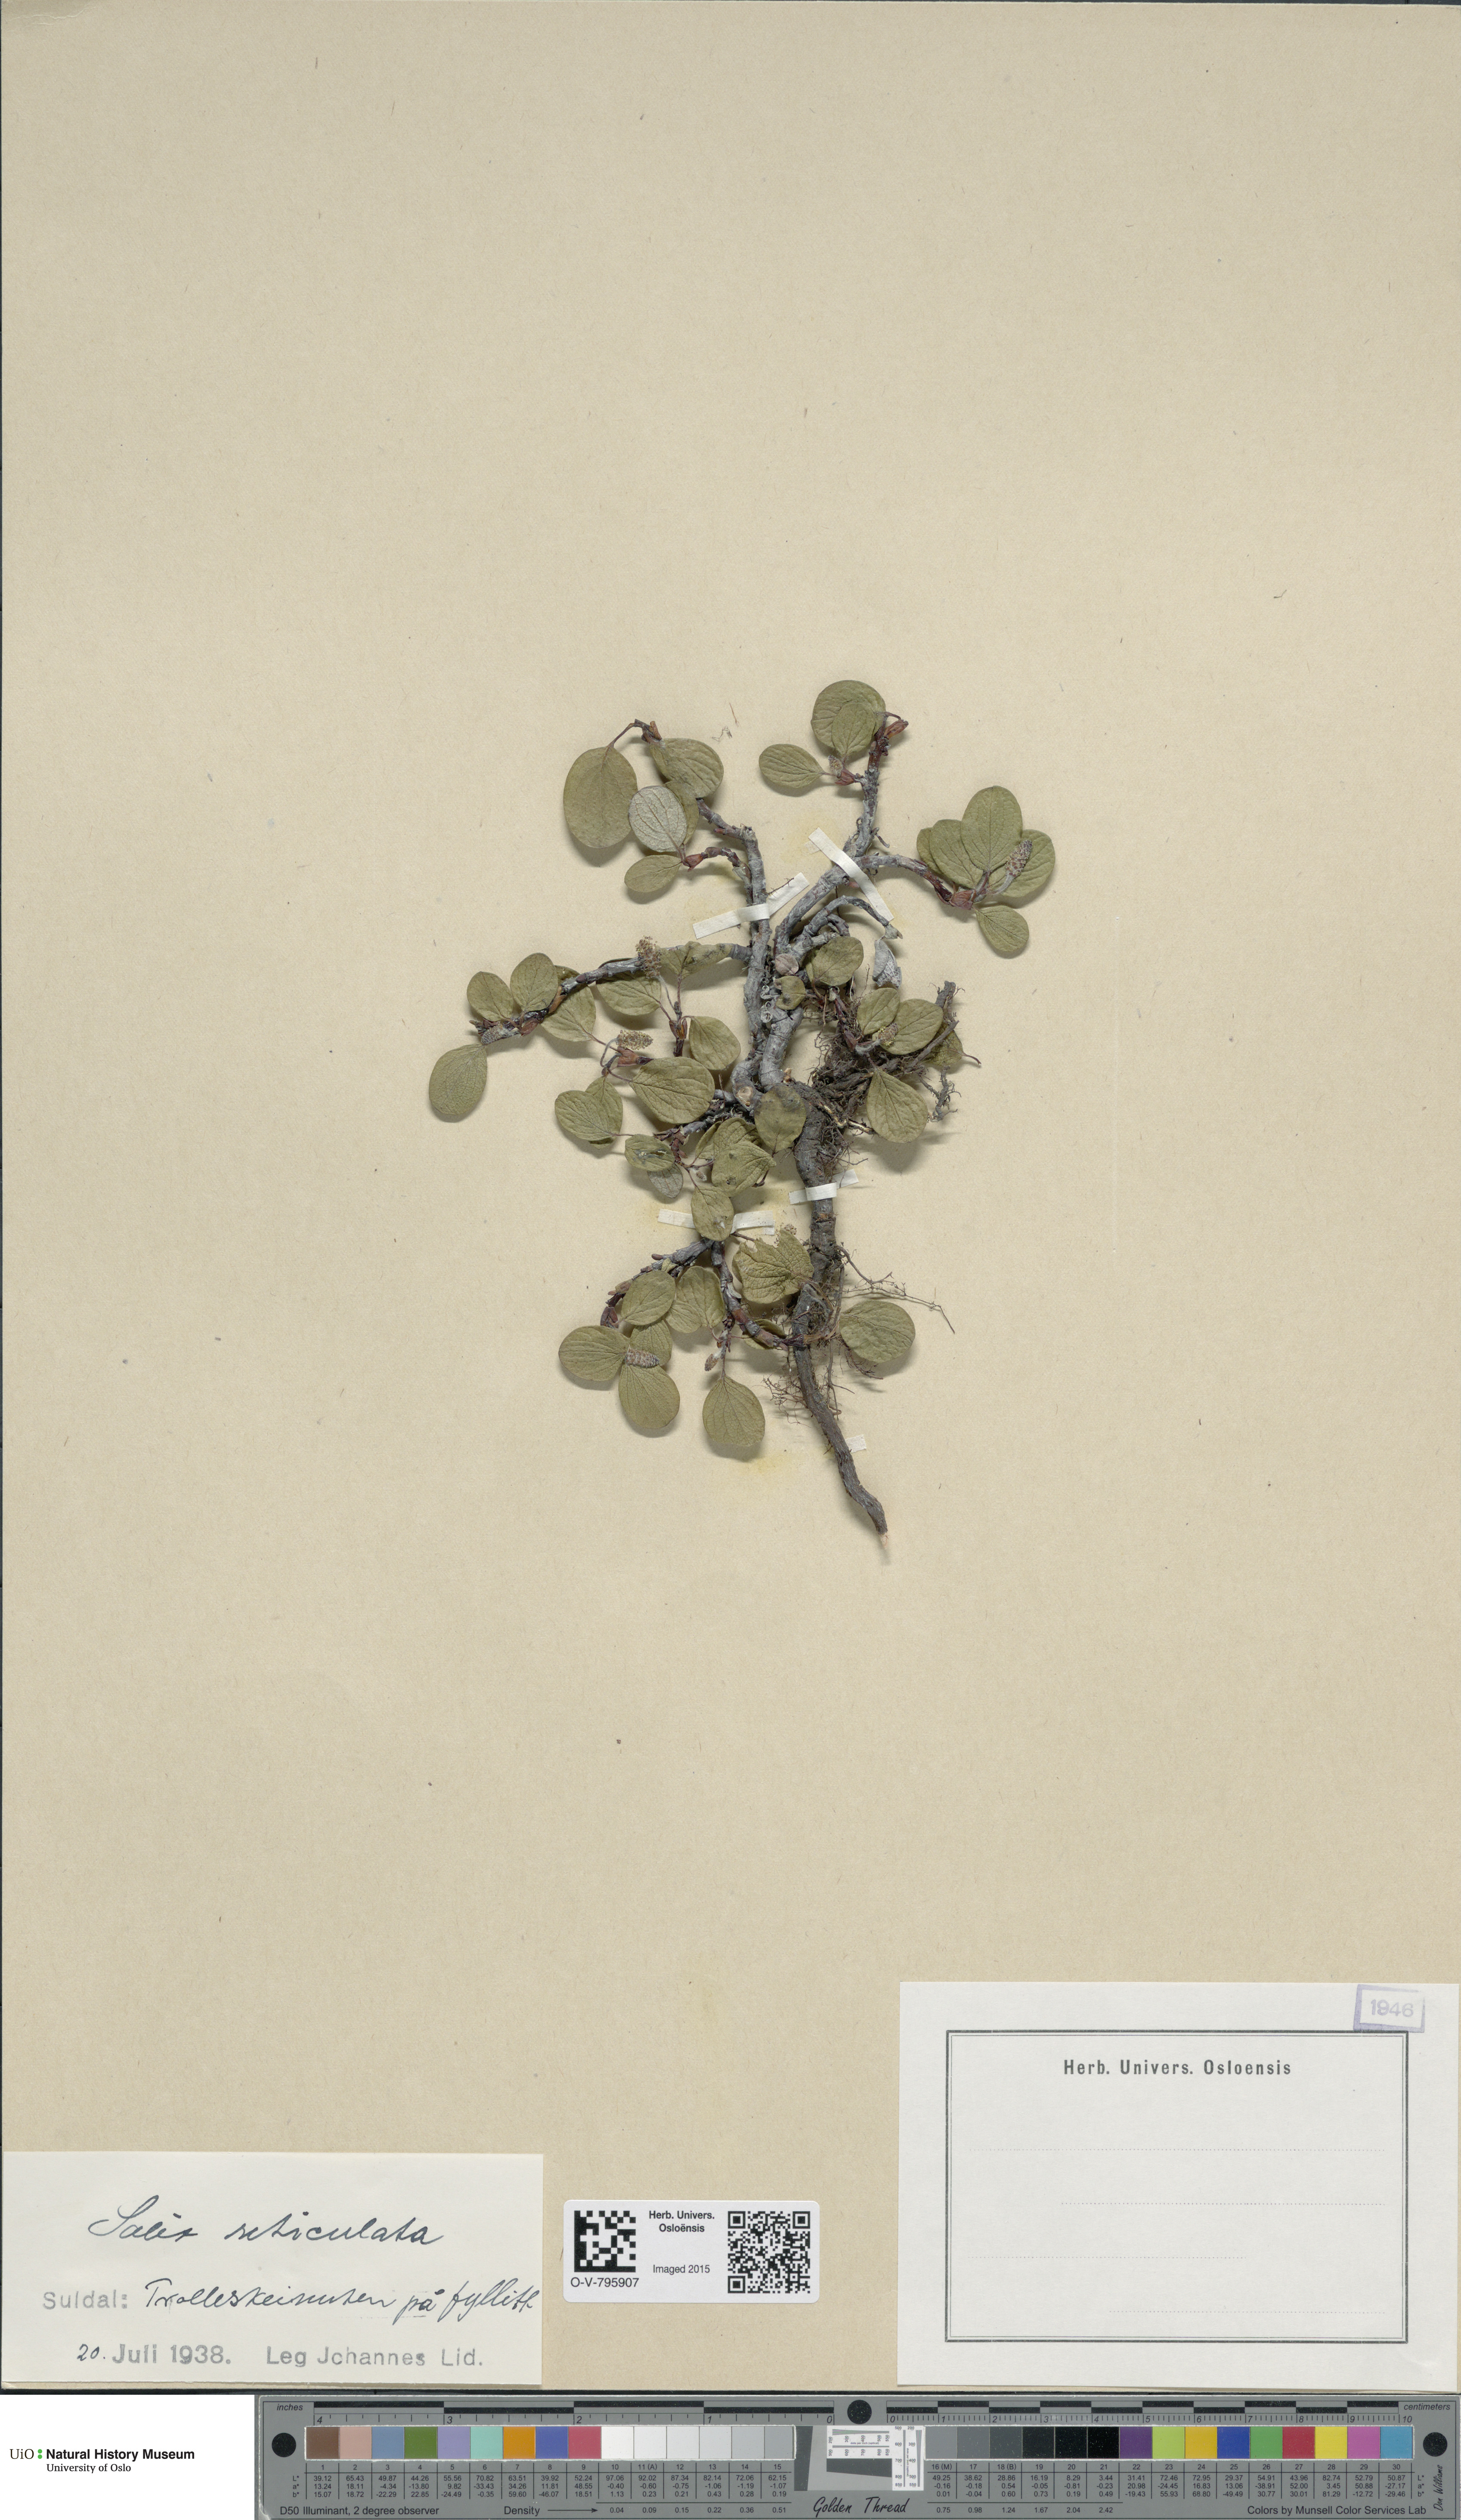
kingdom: Plantae
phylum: Tracheophyta
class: Magnoliopsida
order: Malpighiales
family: Salicaceae
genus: Salix
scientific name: Salix reticulata
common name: Net-leaved willow
